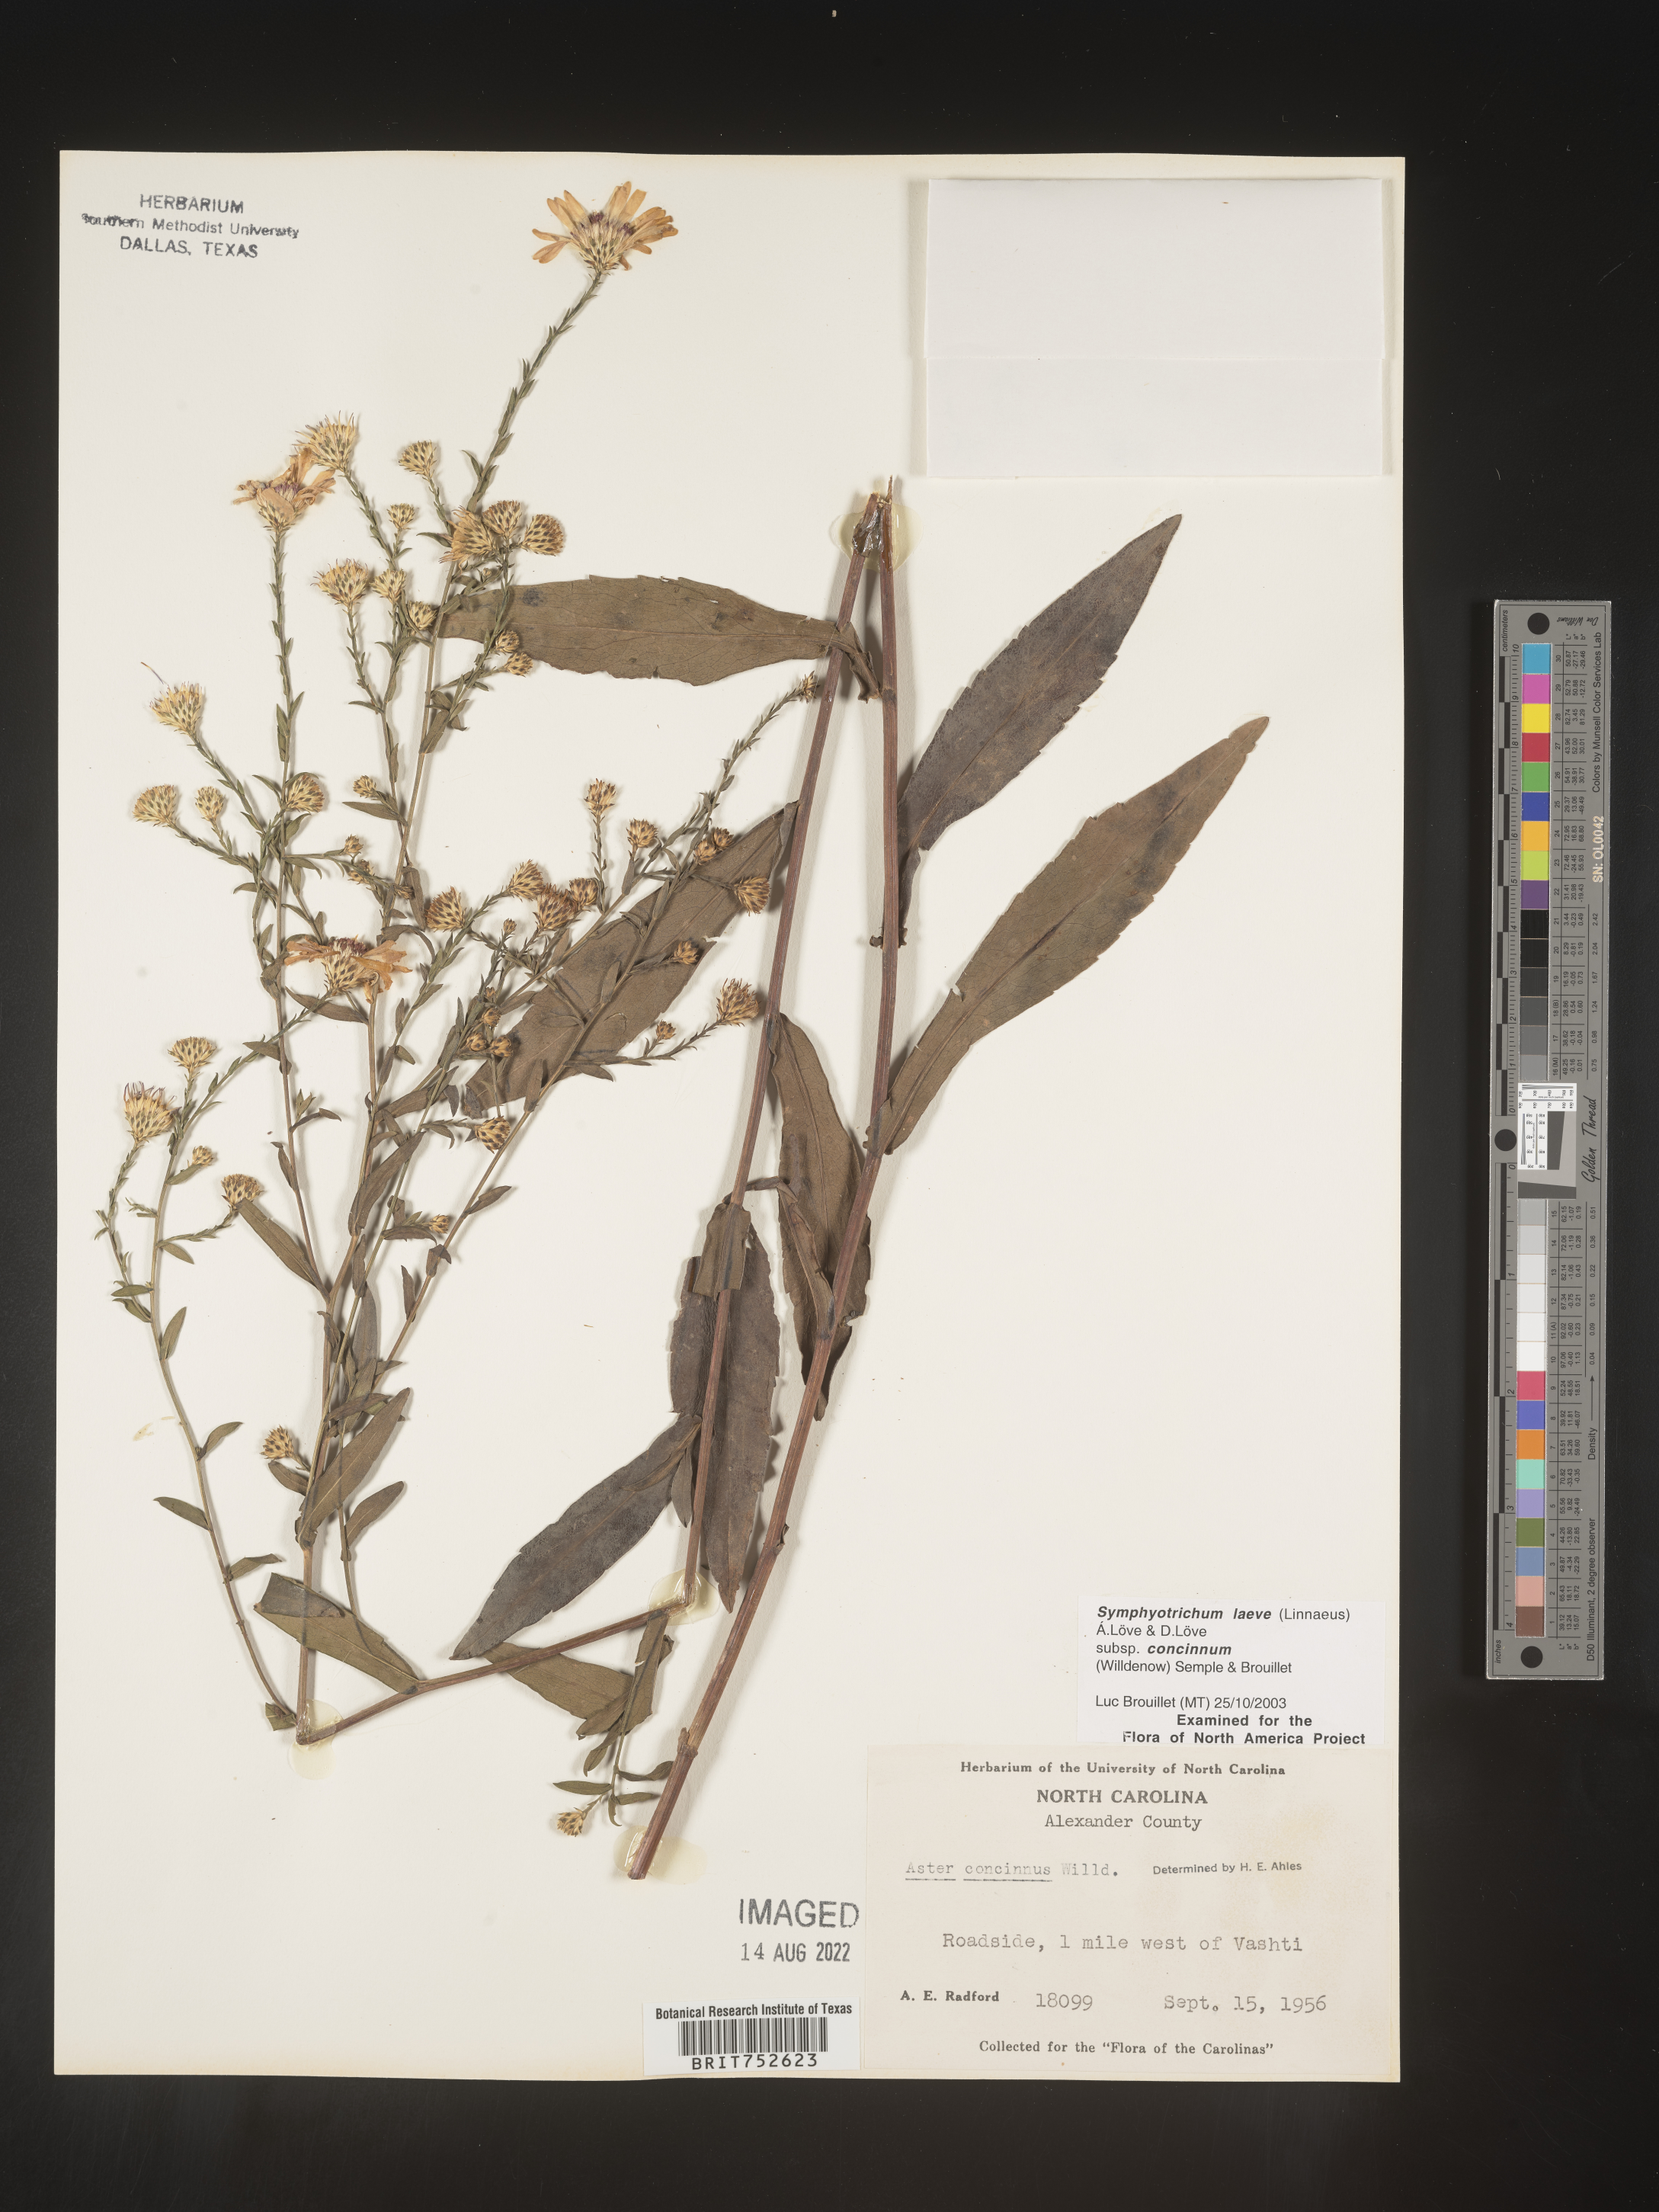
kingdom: Plantae
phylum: Tracheophyta
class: Magnoliopsida
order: Asterales
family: Asteraceae
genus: Symphyotrichum
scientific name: Symphyotrichum laeve
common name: Glaucous aster
